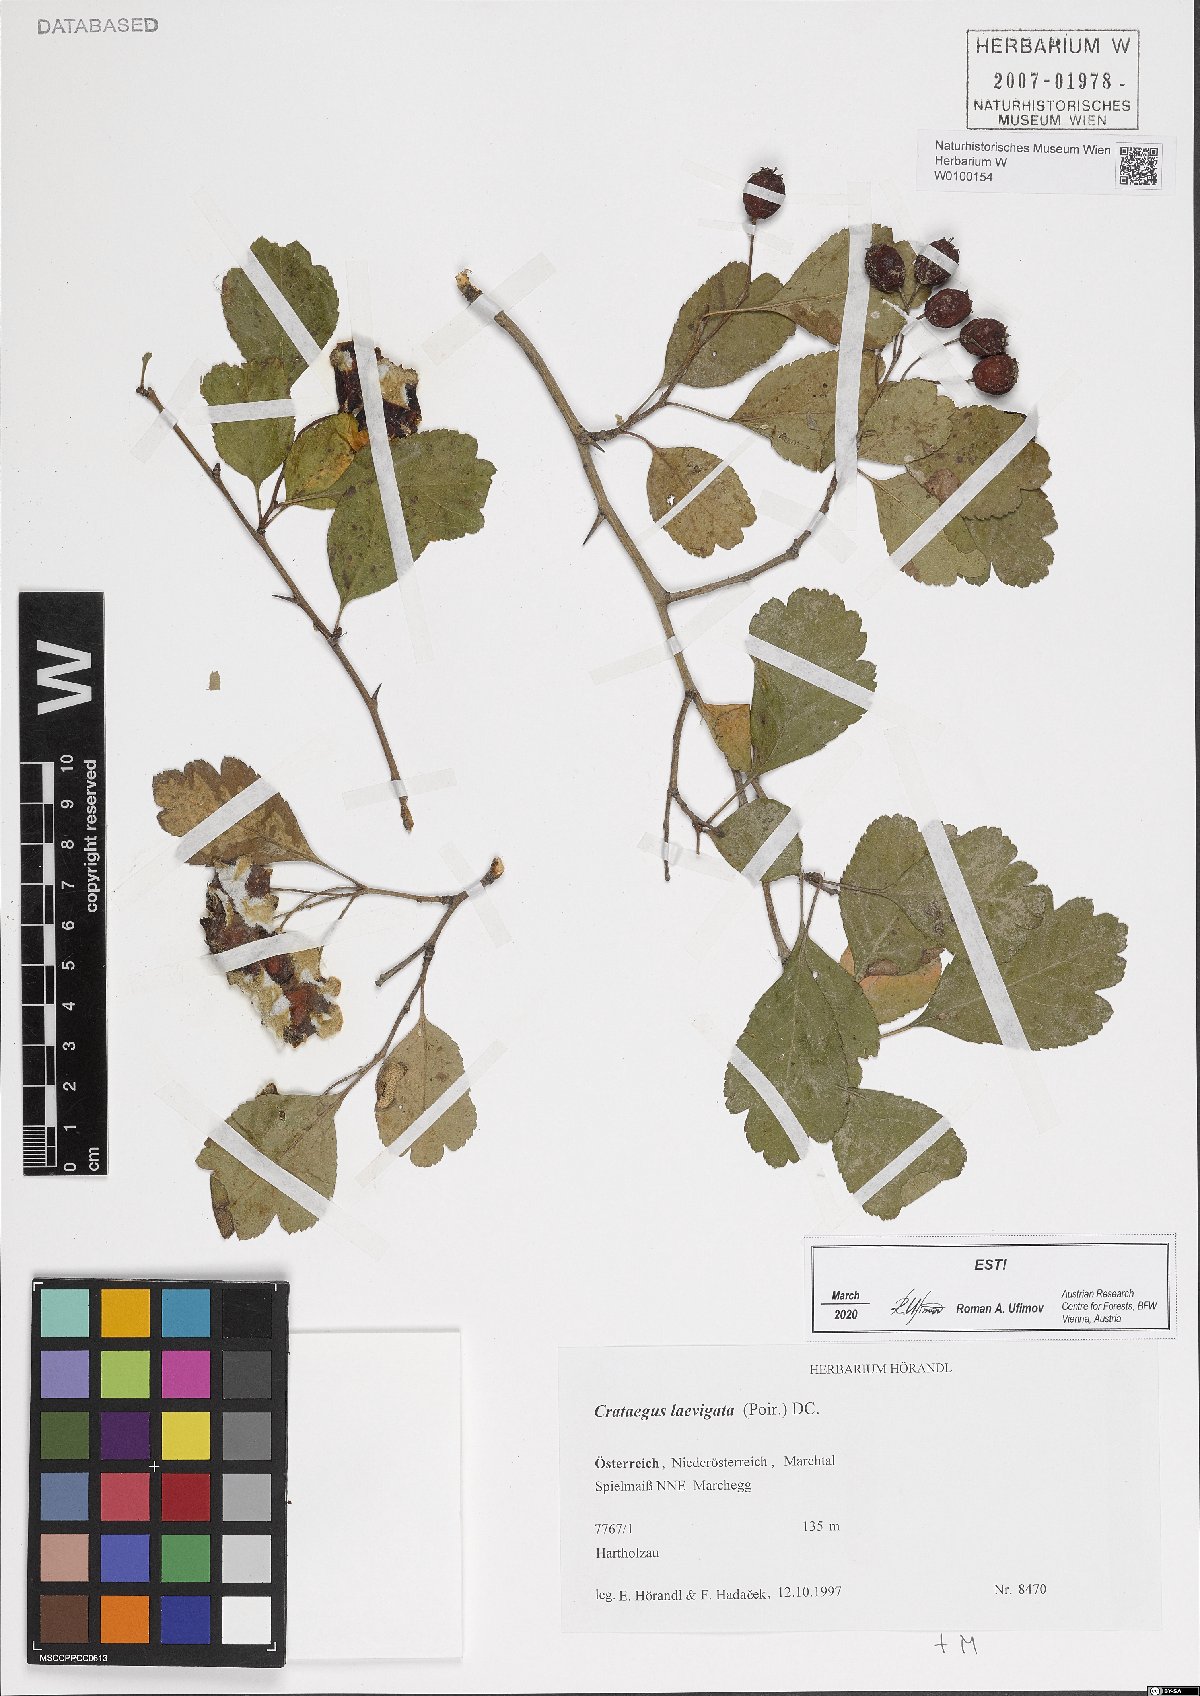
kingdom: Plantae
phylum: Tracheophyta
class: Magnoliopsida
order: Rosales
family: Rosaceae
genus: Crataegus
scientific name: Crataegus laevigata
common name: Midland hawthorn
